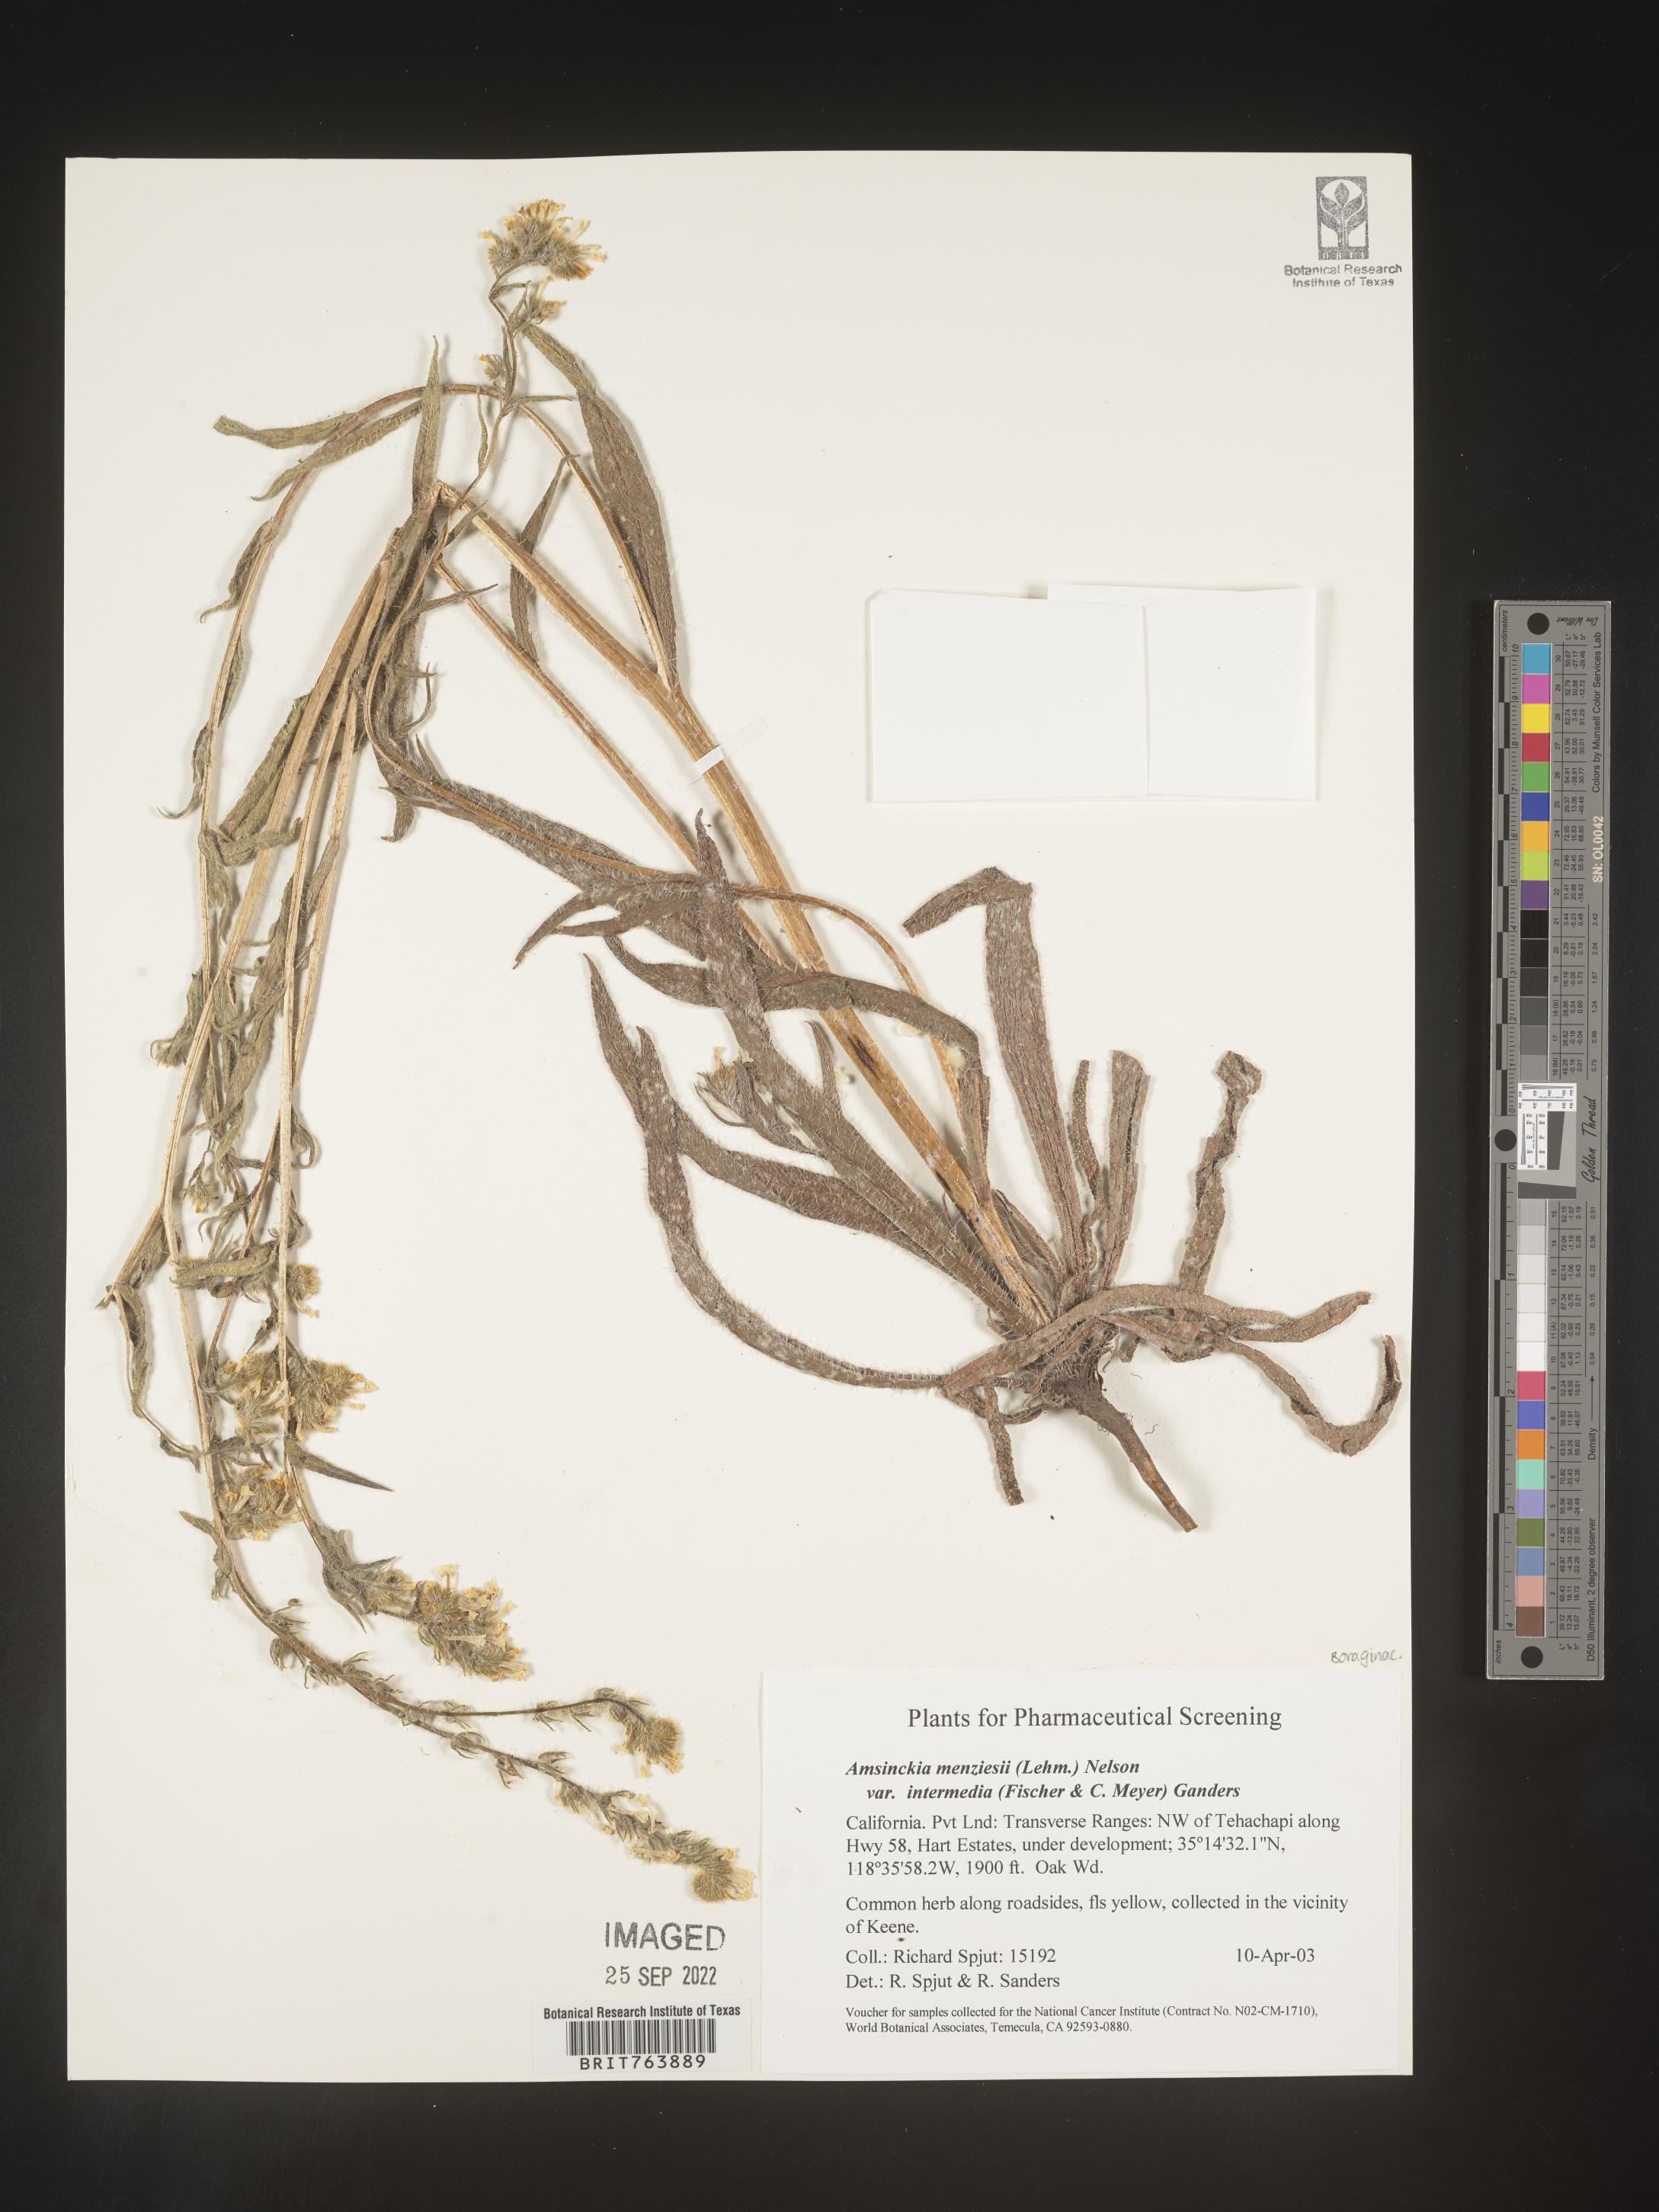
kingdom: Plantae
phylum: Tracheophyta
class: Magnoliopsida
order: Boraginales
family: Boraginaceae
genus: Amsinckia
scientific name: Amsinckia menziesii
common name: Menzies' fiddleneck
